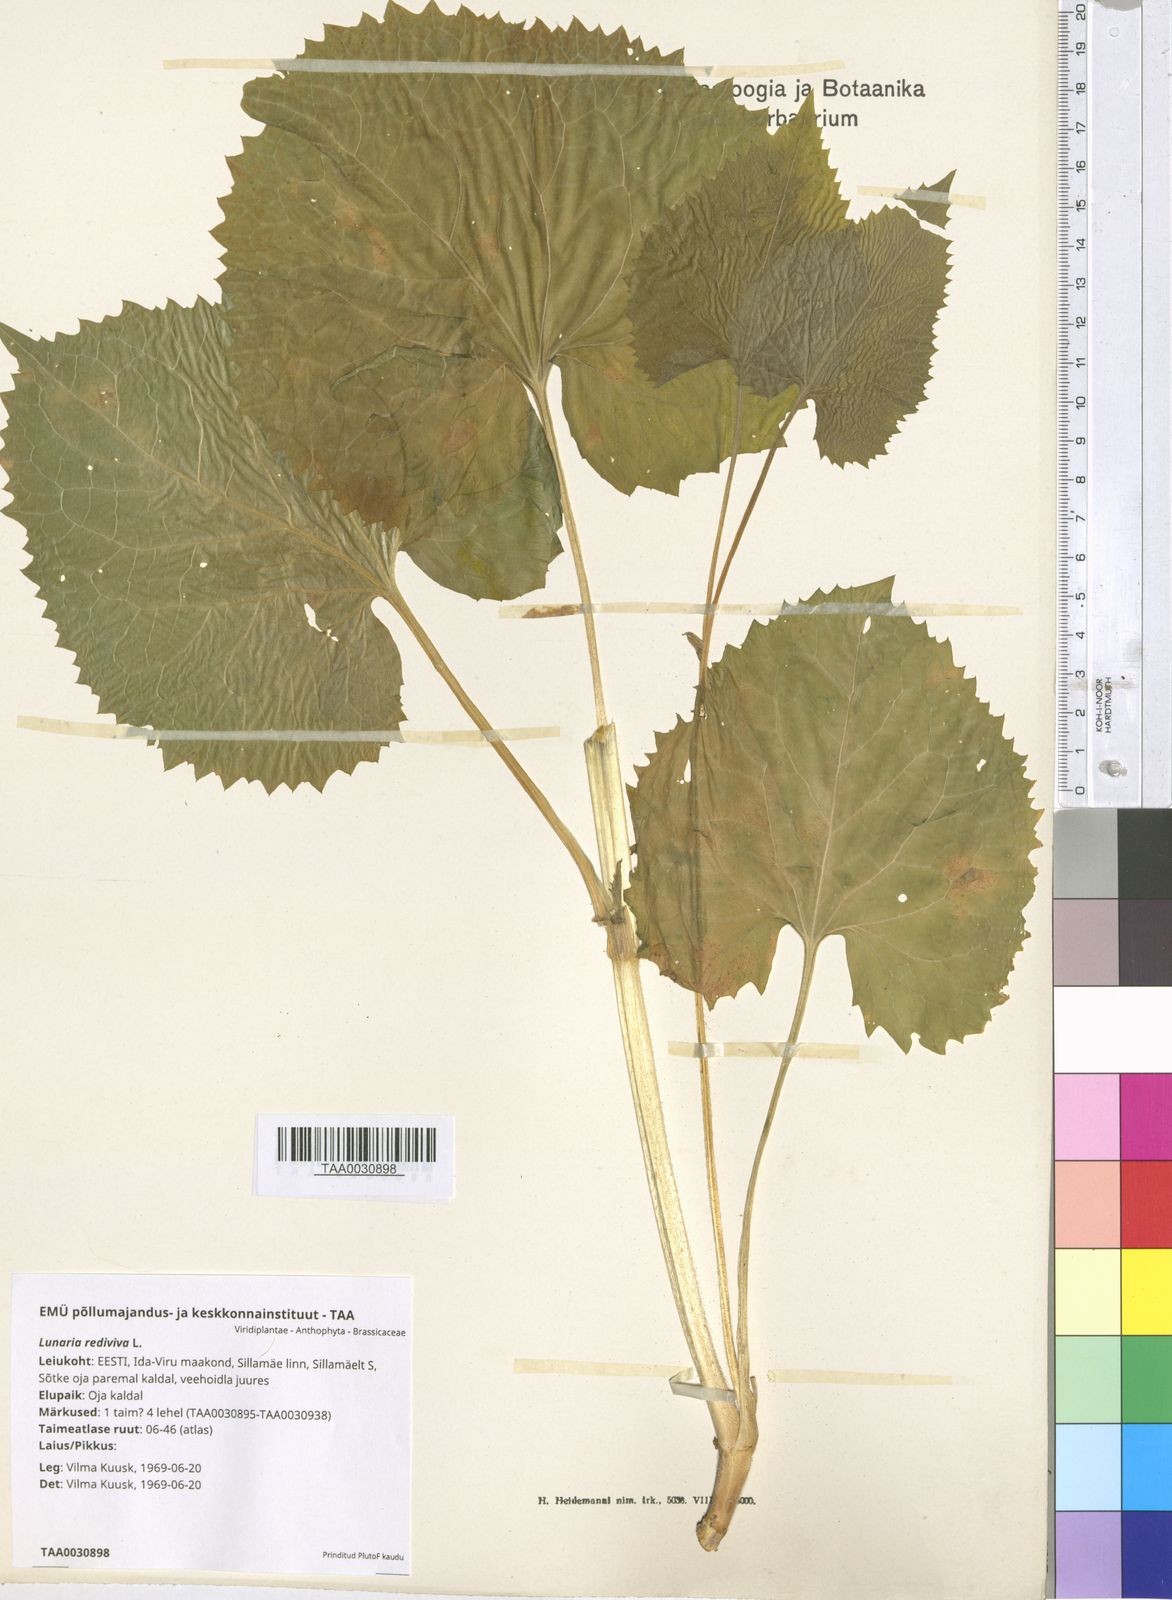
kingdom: Plantae
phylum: Tracheophyta
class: Magnoliopsida
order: Brassicales
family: Brassicaceae
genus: Lunaria
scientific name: Lunaria rediviva
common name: Perennial honesty
